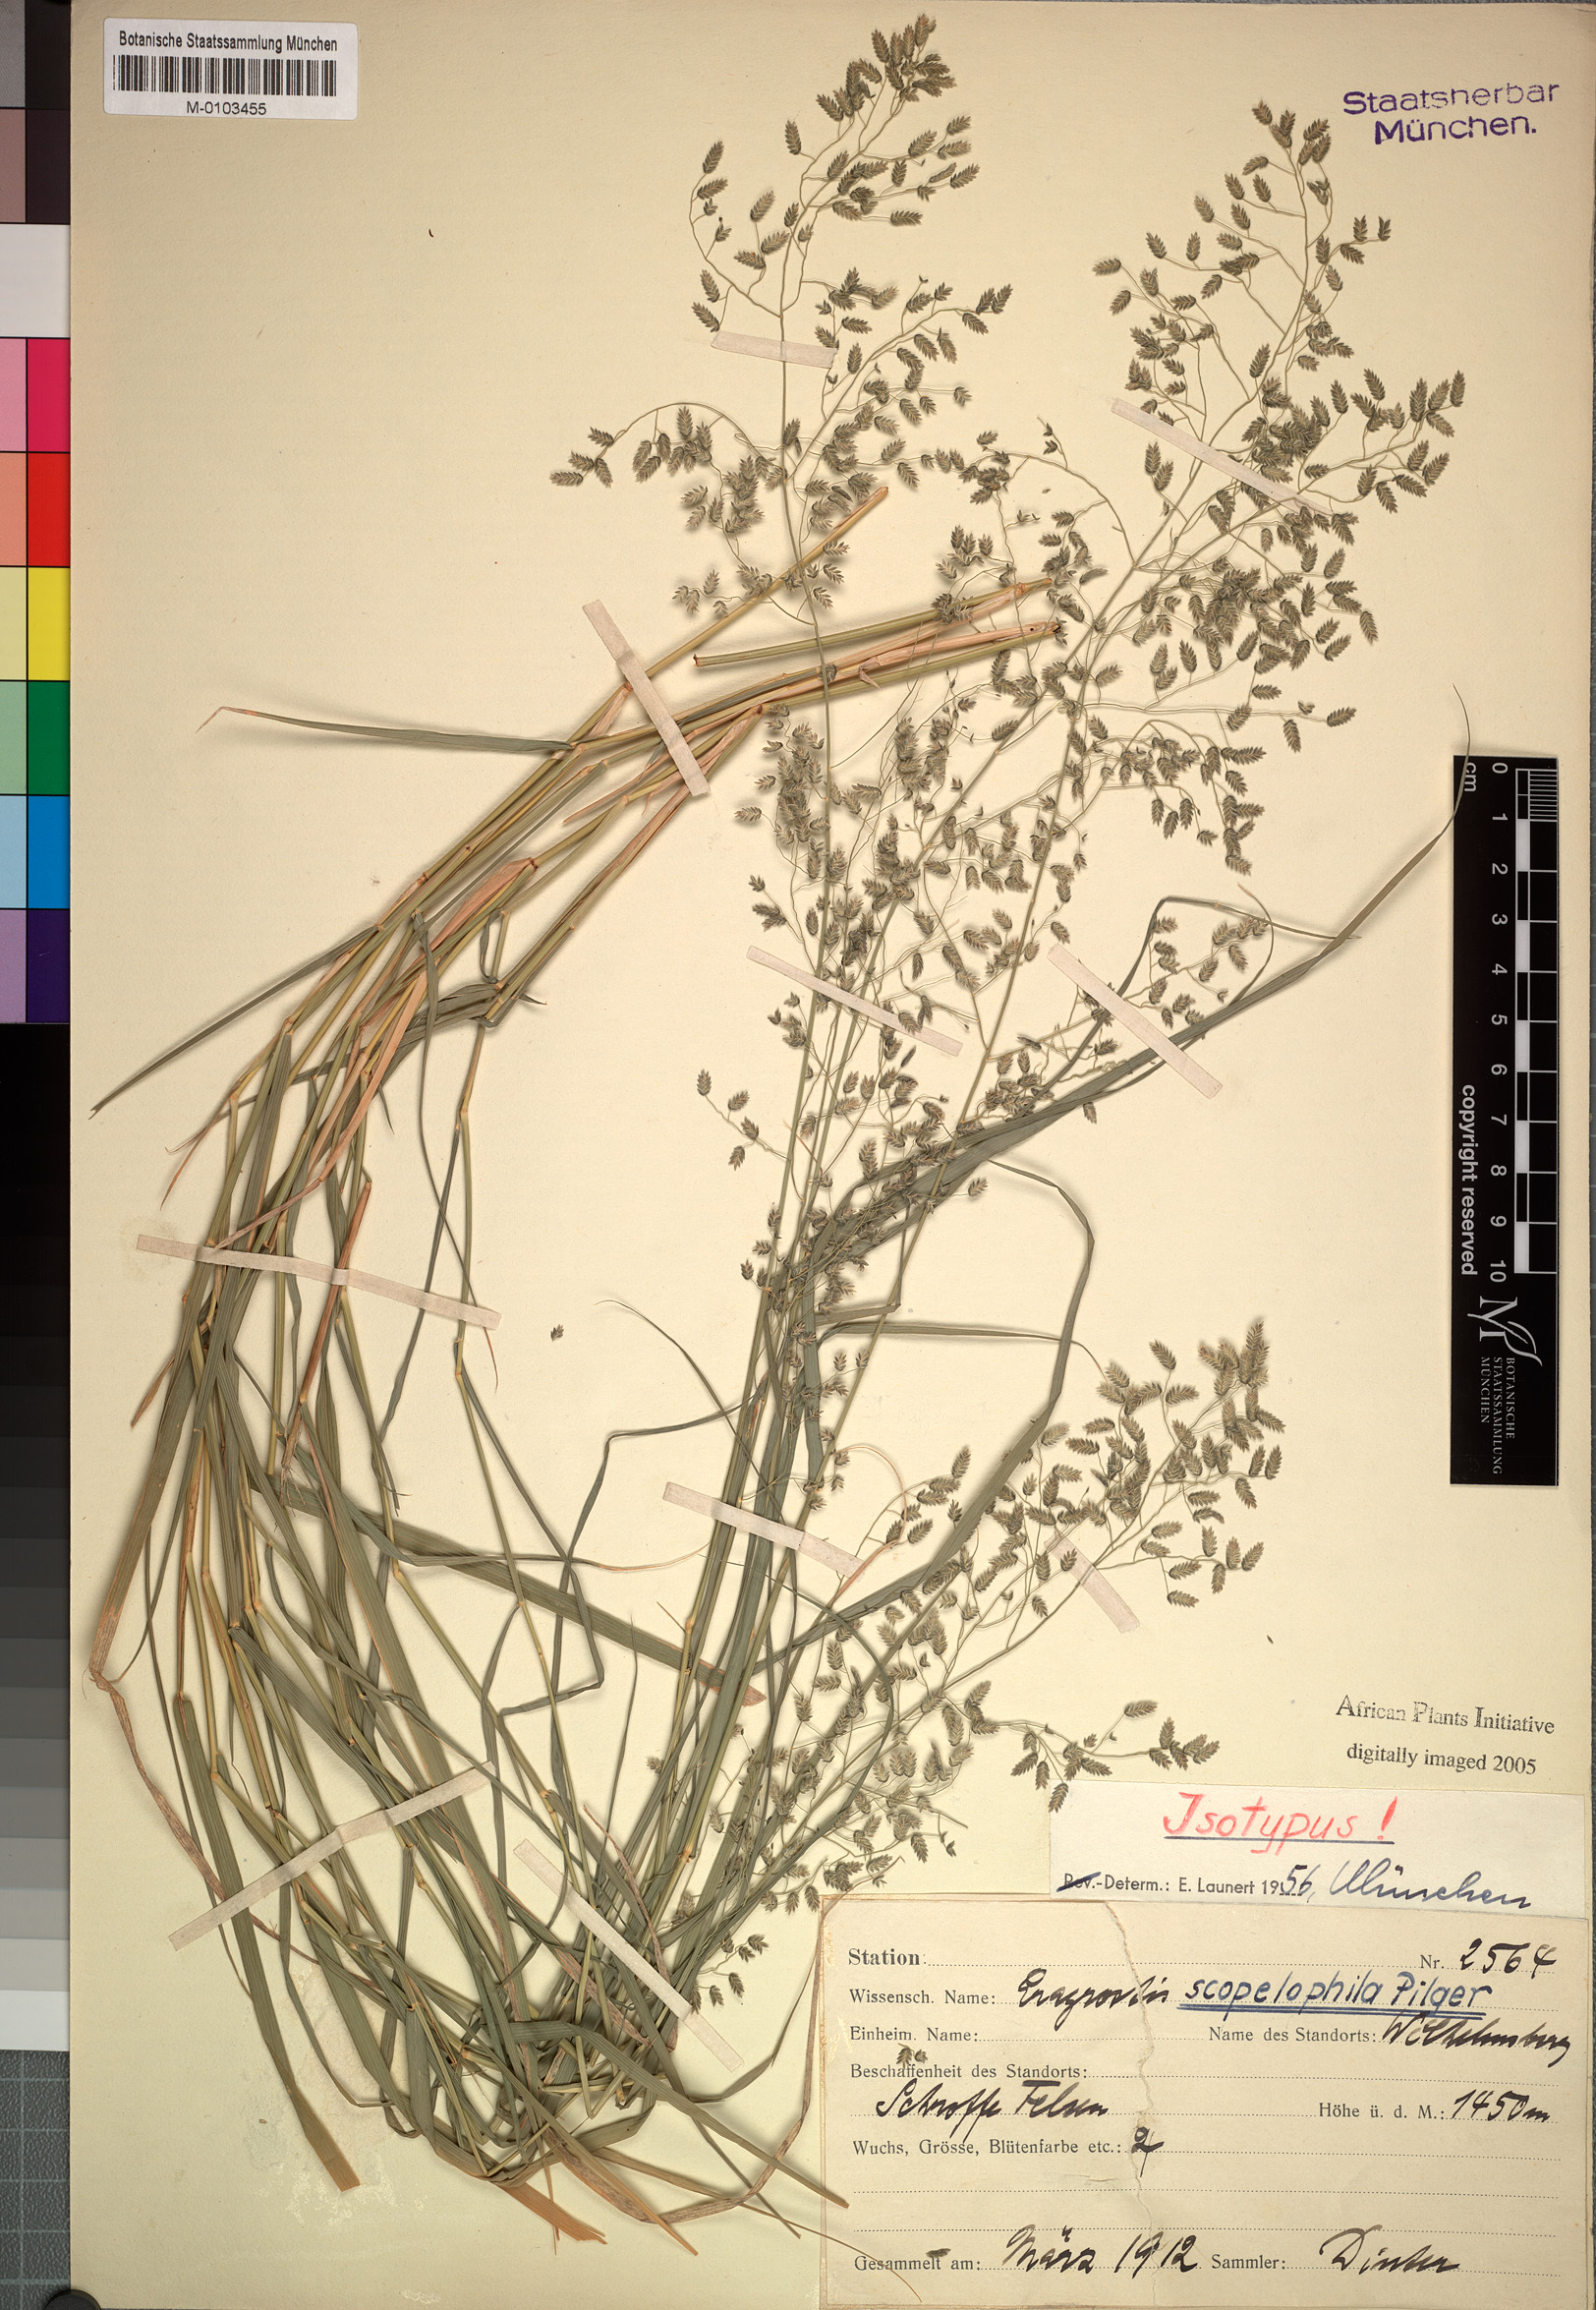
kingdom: Plantae
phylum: Tracheophyta
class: Liliopsida
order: Poales
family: Poaceae
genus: Eragrostis
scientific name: Eragrostis scopelophila
